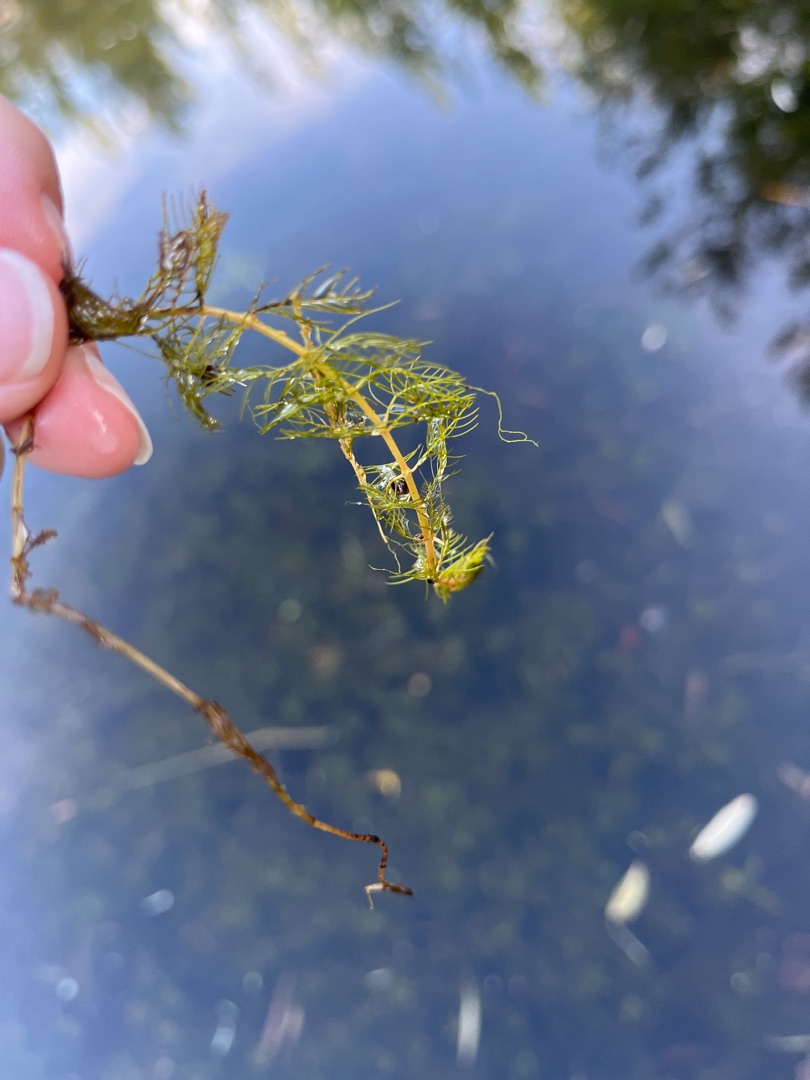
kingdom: Plantae
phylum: Tracheophyta
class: Magnoliopsida
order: Saxifragales
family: Haloragaceae
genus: Myriophyllum
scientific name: Myriophyllum spicatum
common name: Aks-tusindblad
